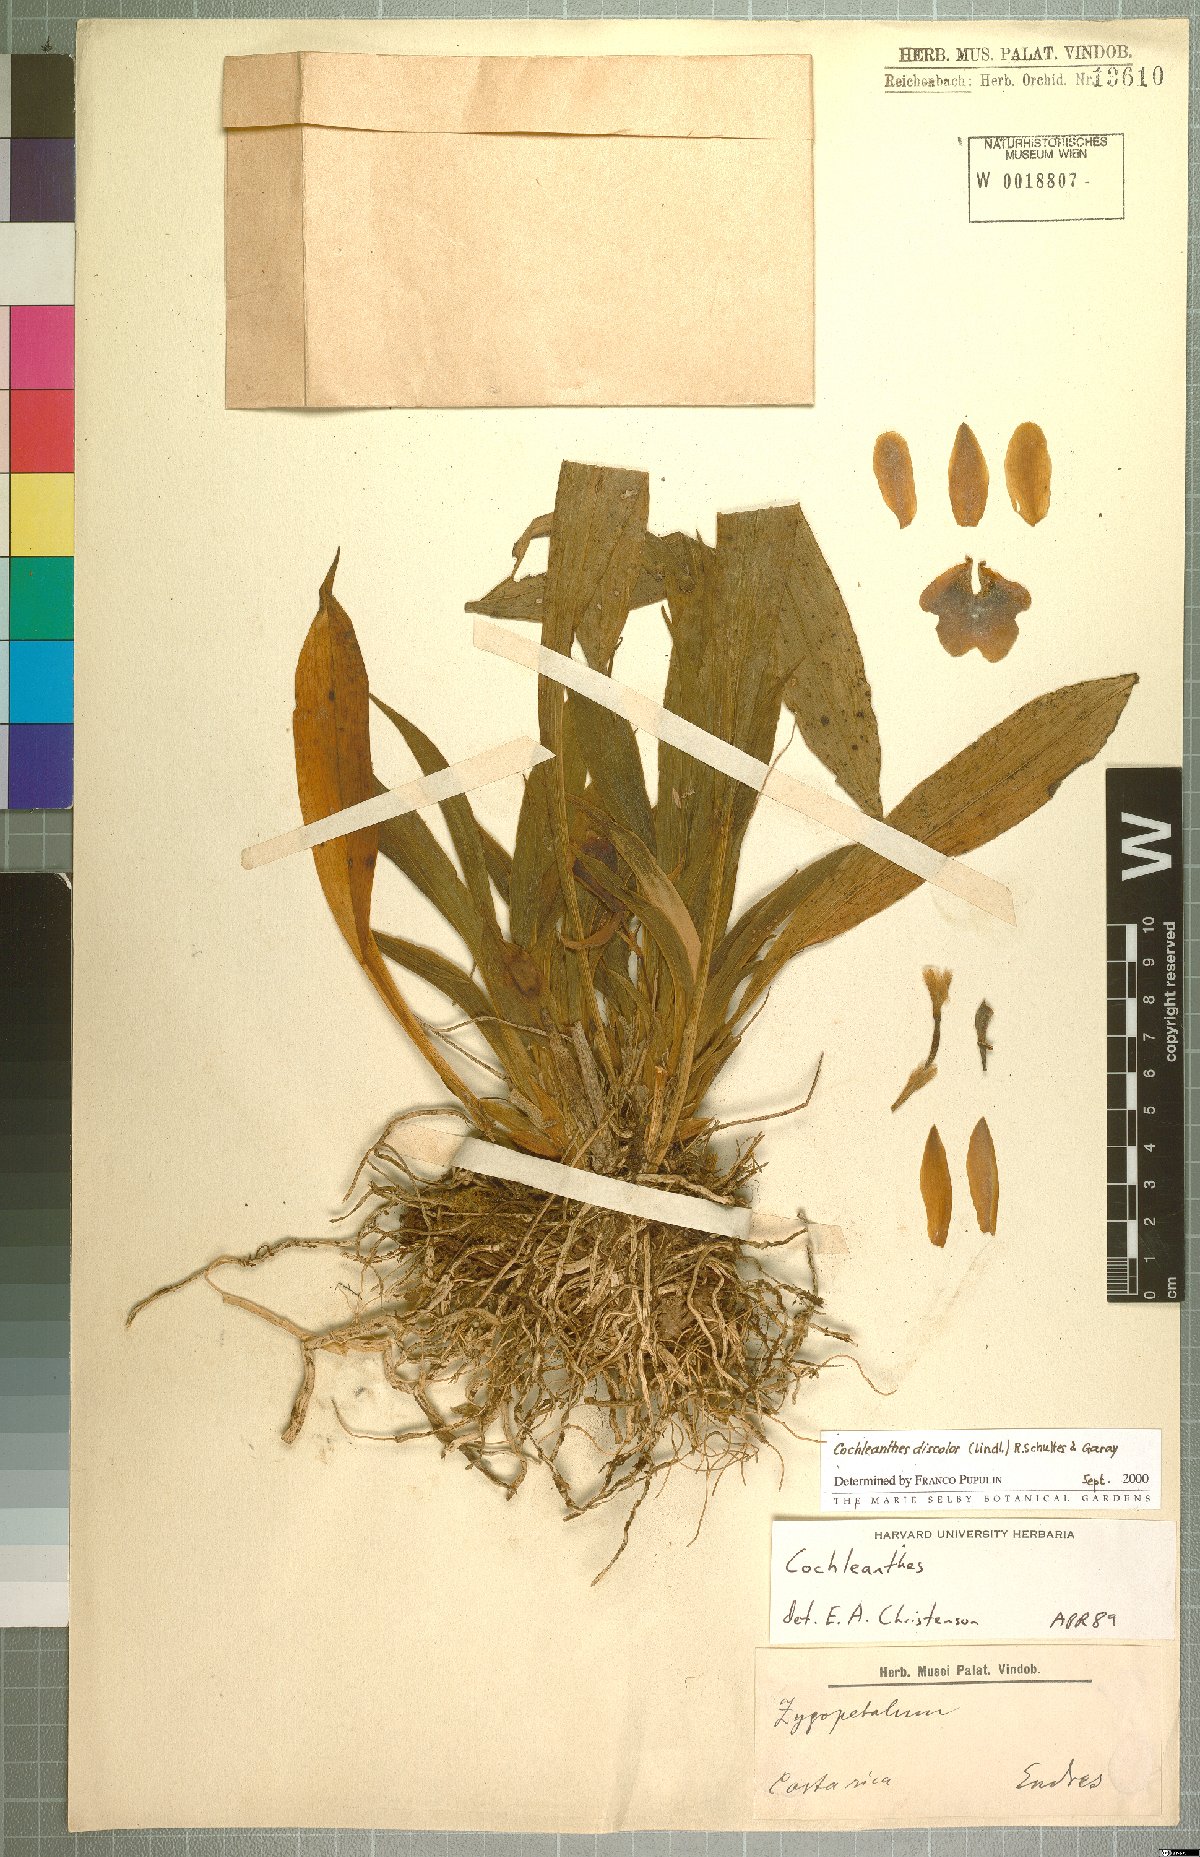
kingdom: Plantae
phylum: Tracheophyta
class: Liliopsida
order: Asparagales
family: Orchidaceae
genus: Warczewiczella
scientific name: Warczewiczella discolor
